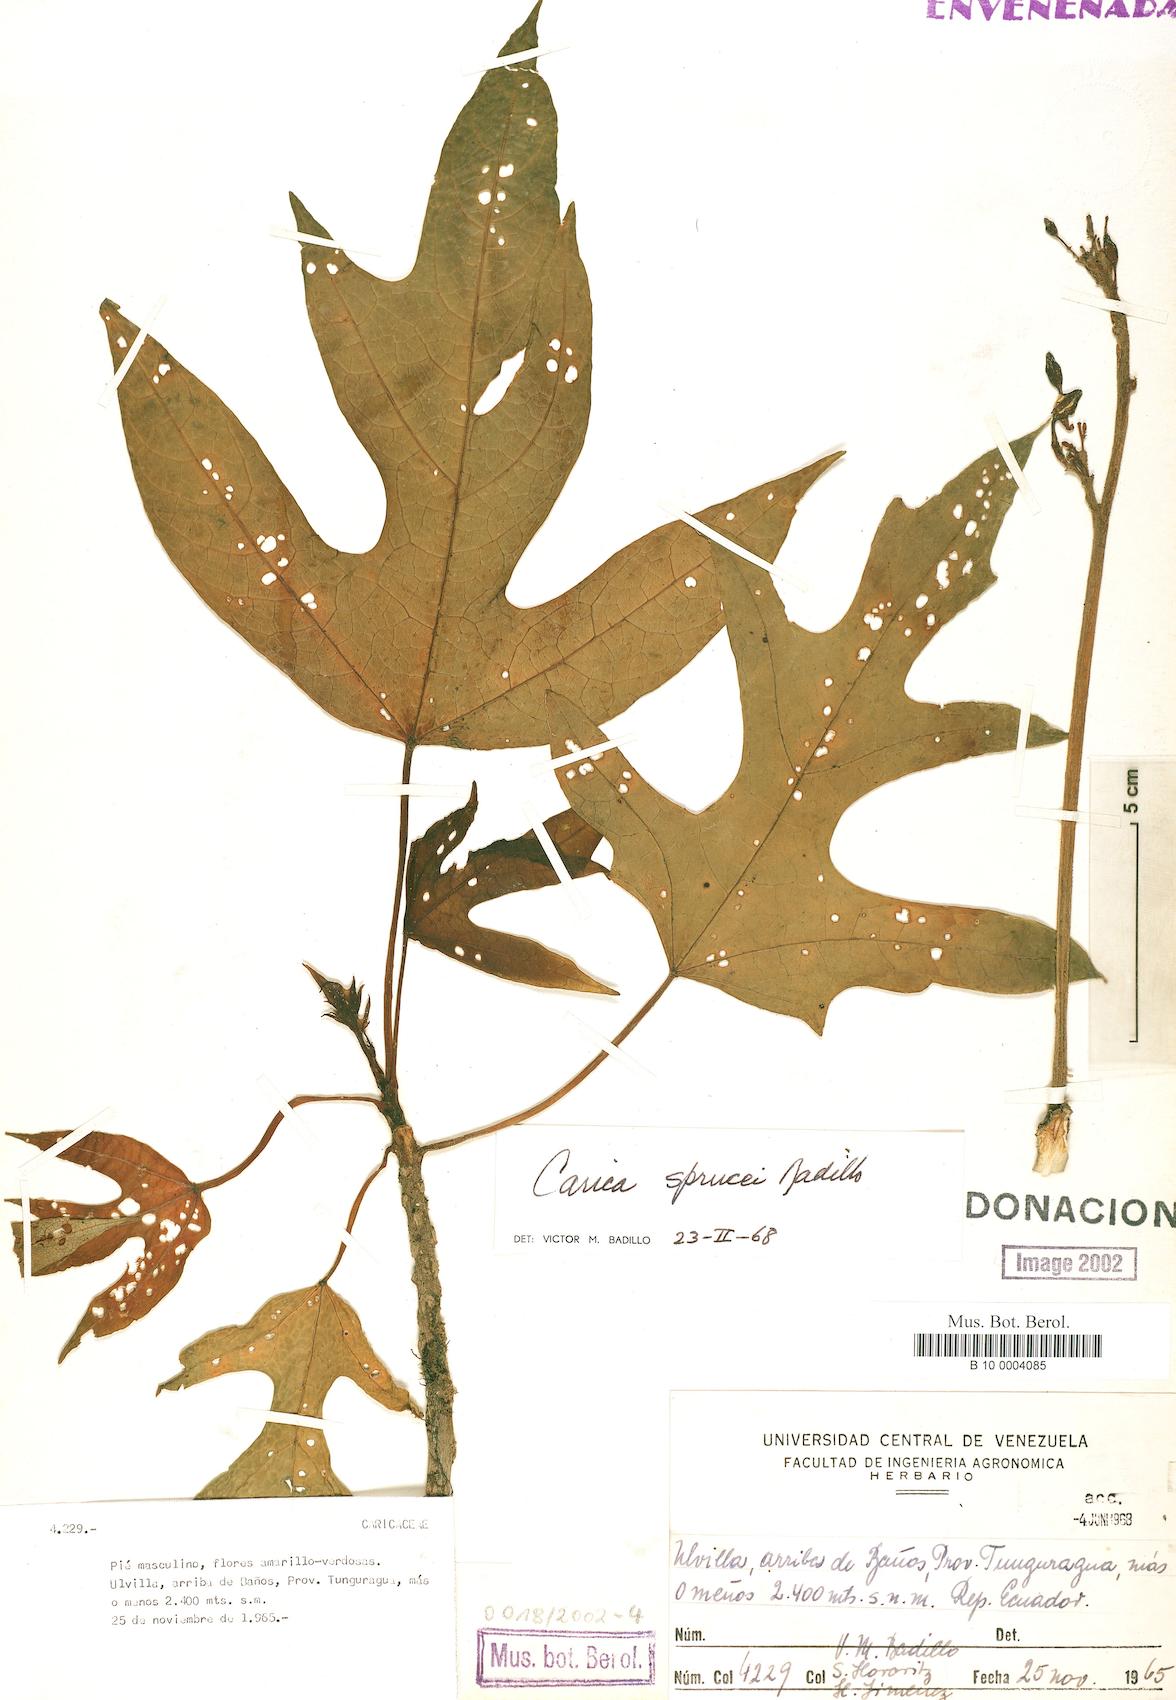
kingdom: Plantae
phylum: Tracheophyta
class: Magnoliopsida
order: Brassicales
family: Caricaceae
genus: Vasconcellea
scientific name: Vasconcellea sprucei
